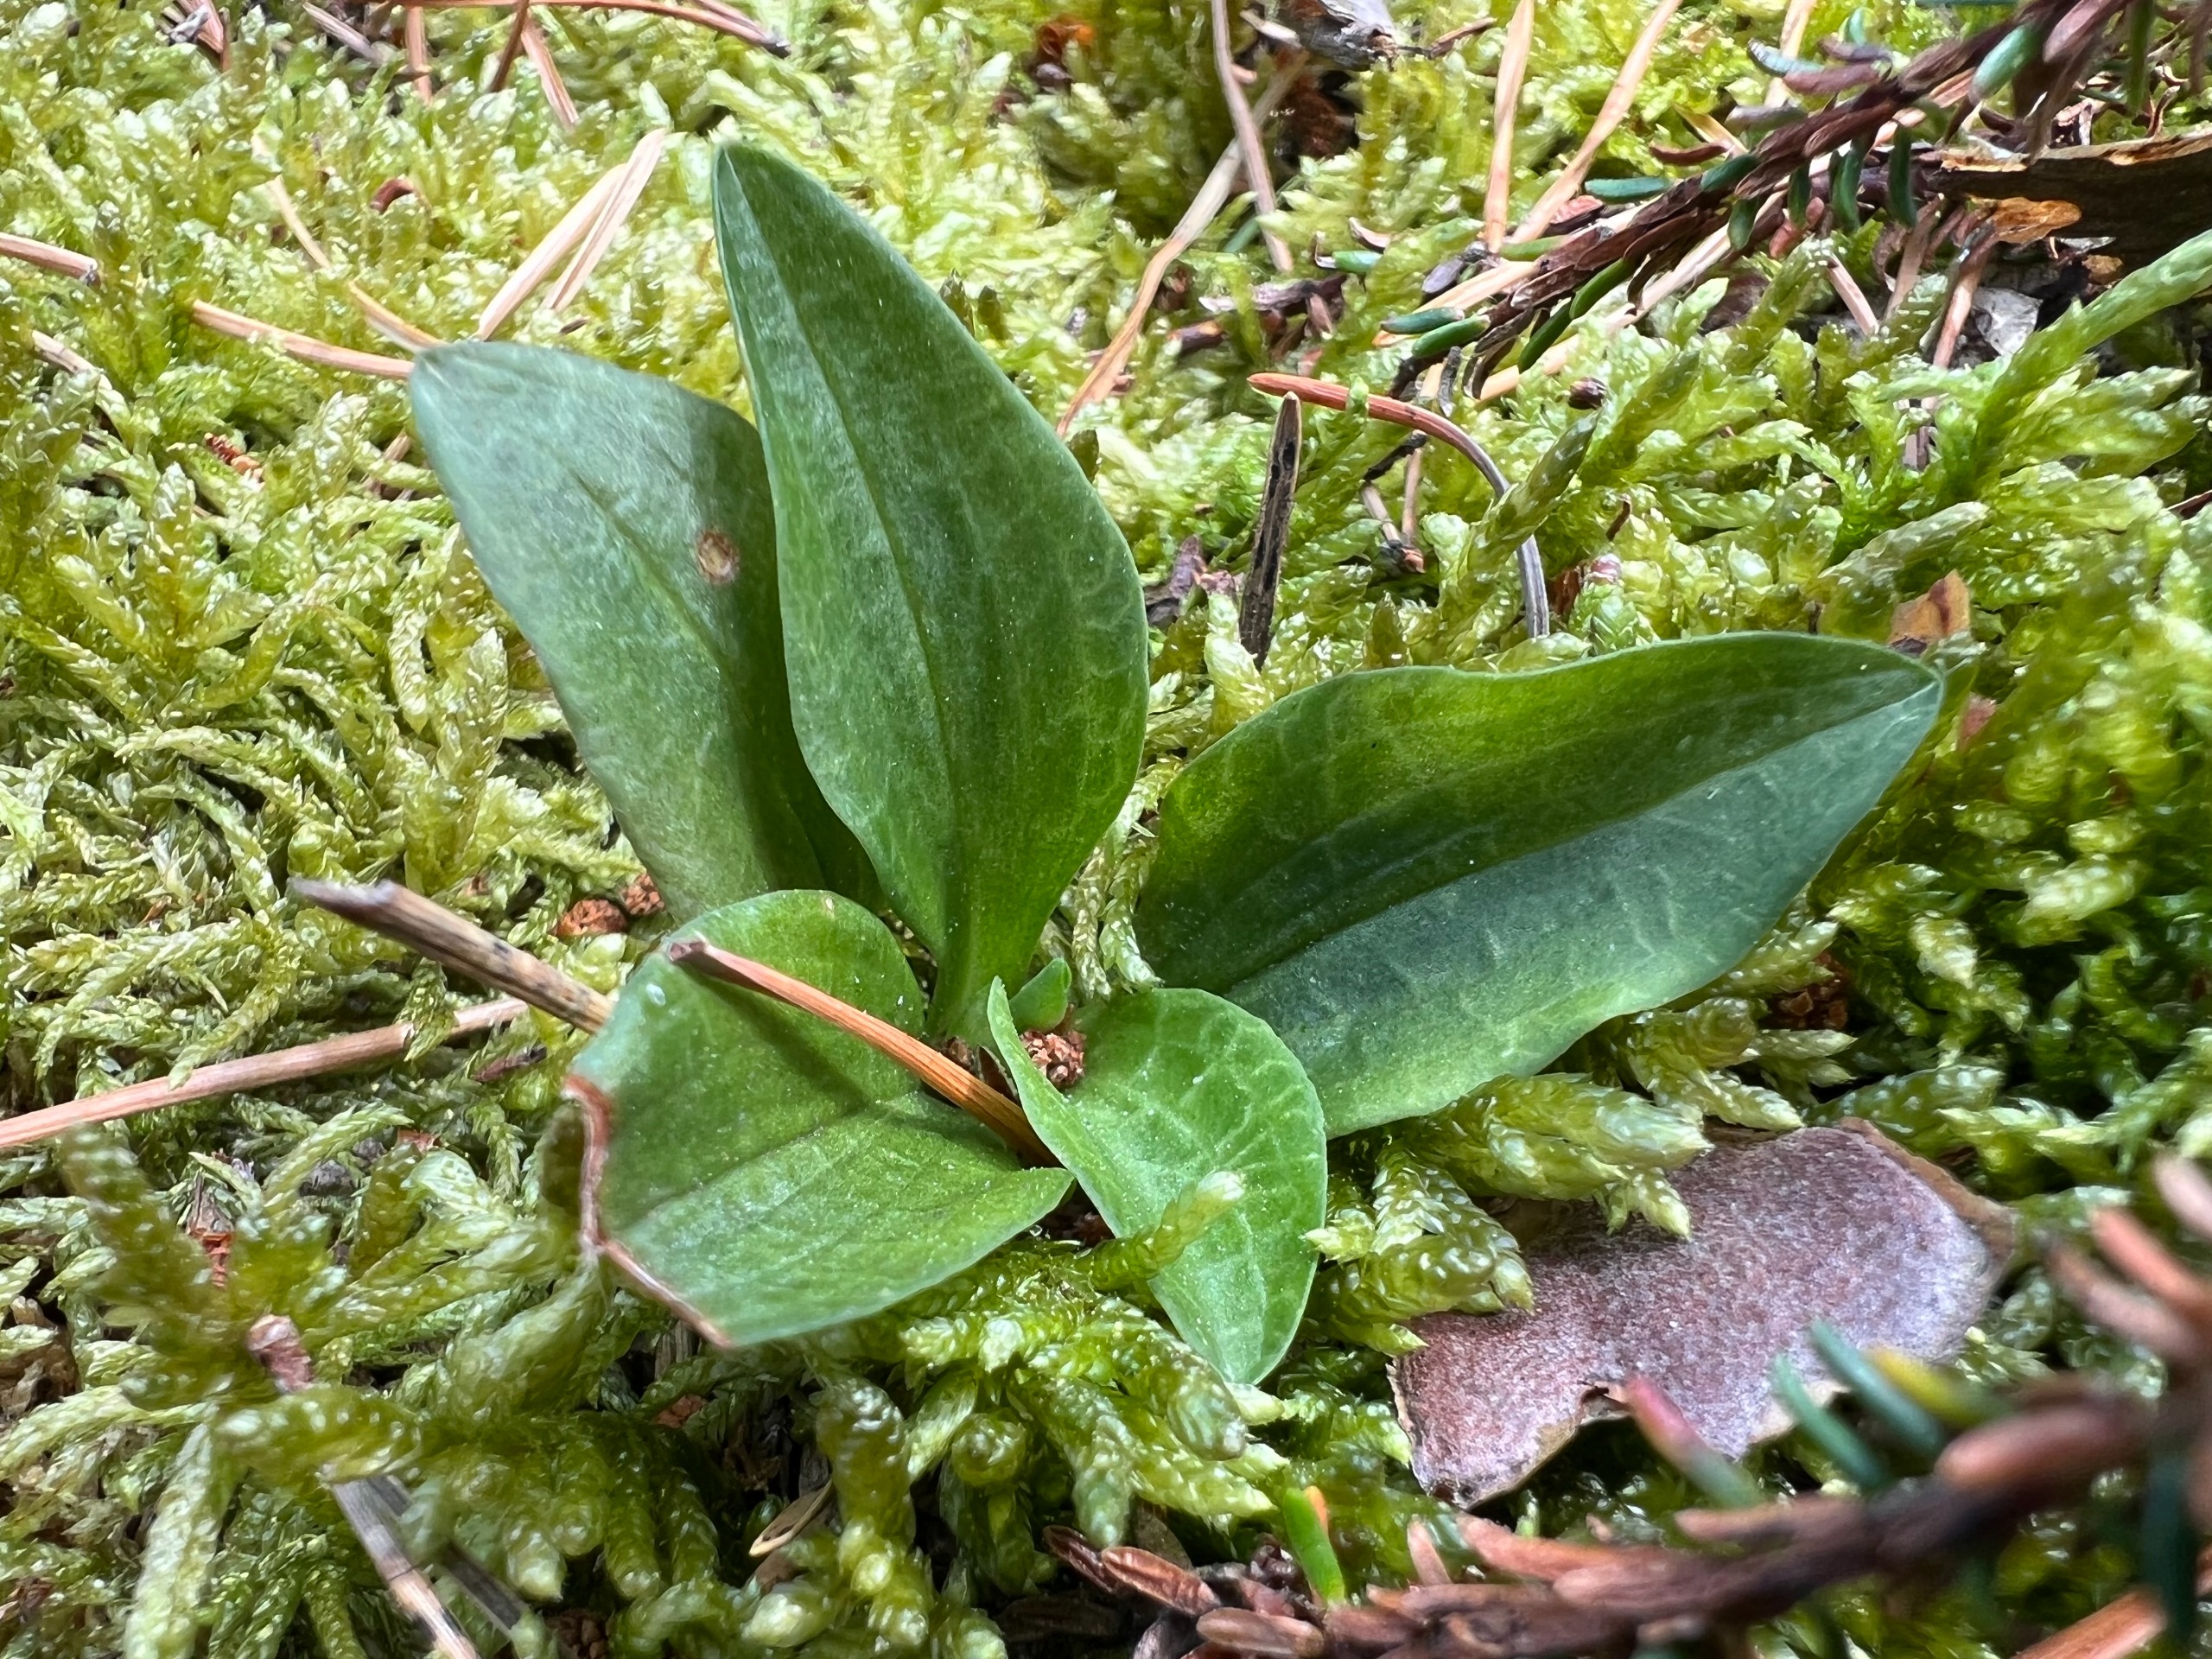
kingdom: Plantae
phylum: Tracheophyta
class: Liliopsida
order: Asparagales
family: Orchidaceae
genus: Goodyera
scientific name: Goodyera repens
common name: Knærod
